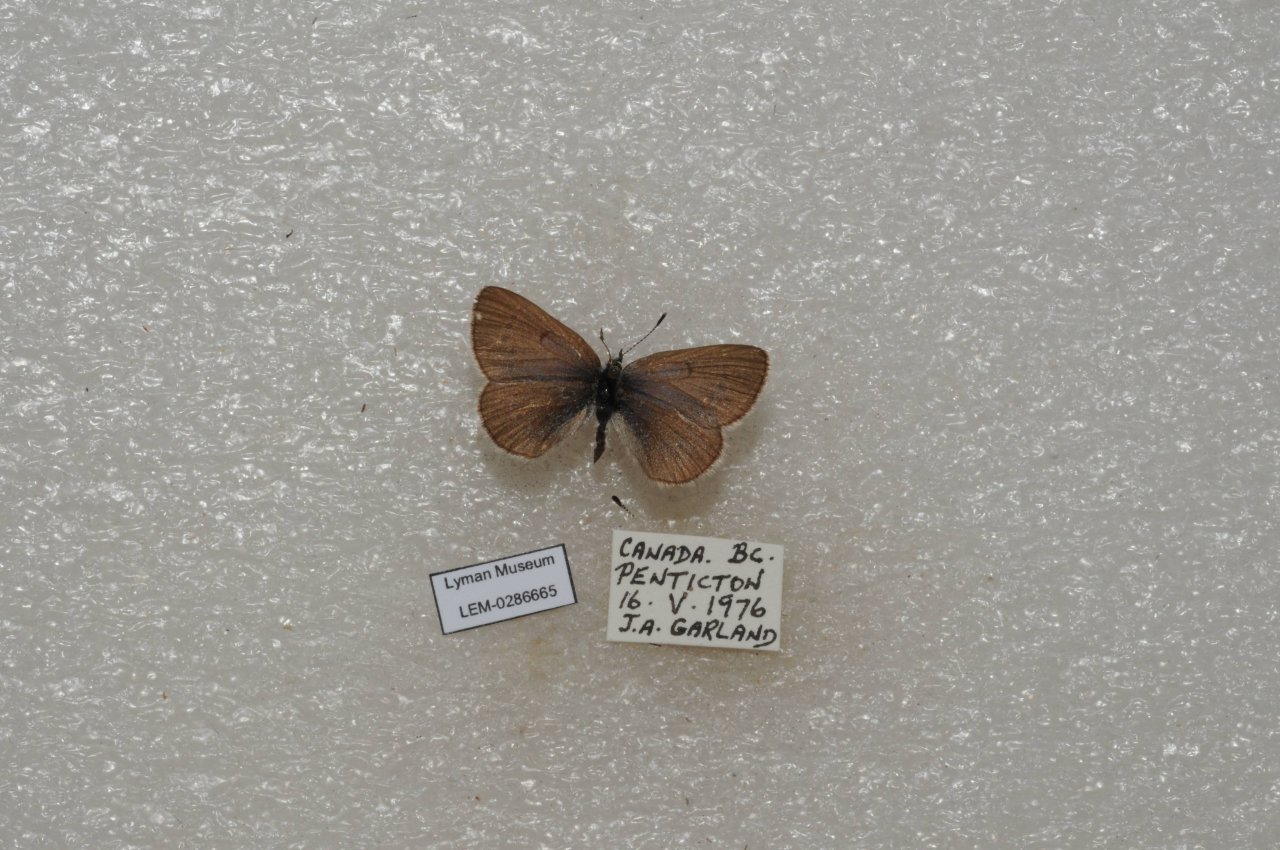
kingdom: Animalia
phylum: Arthropoda
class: Insecta
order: Lepidoptera
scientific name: Lepidoptera
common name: Butterflies
